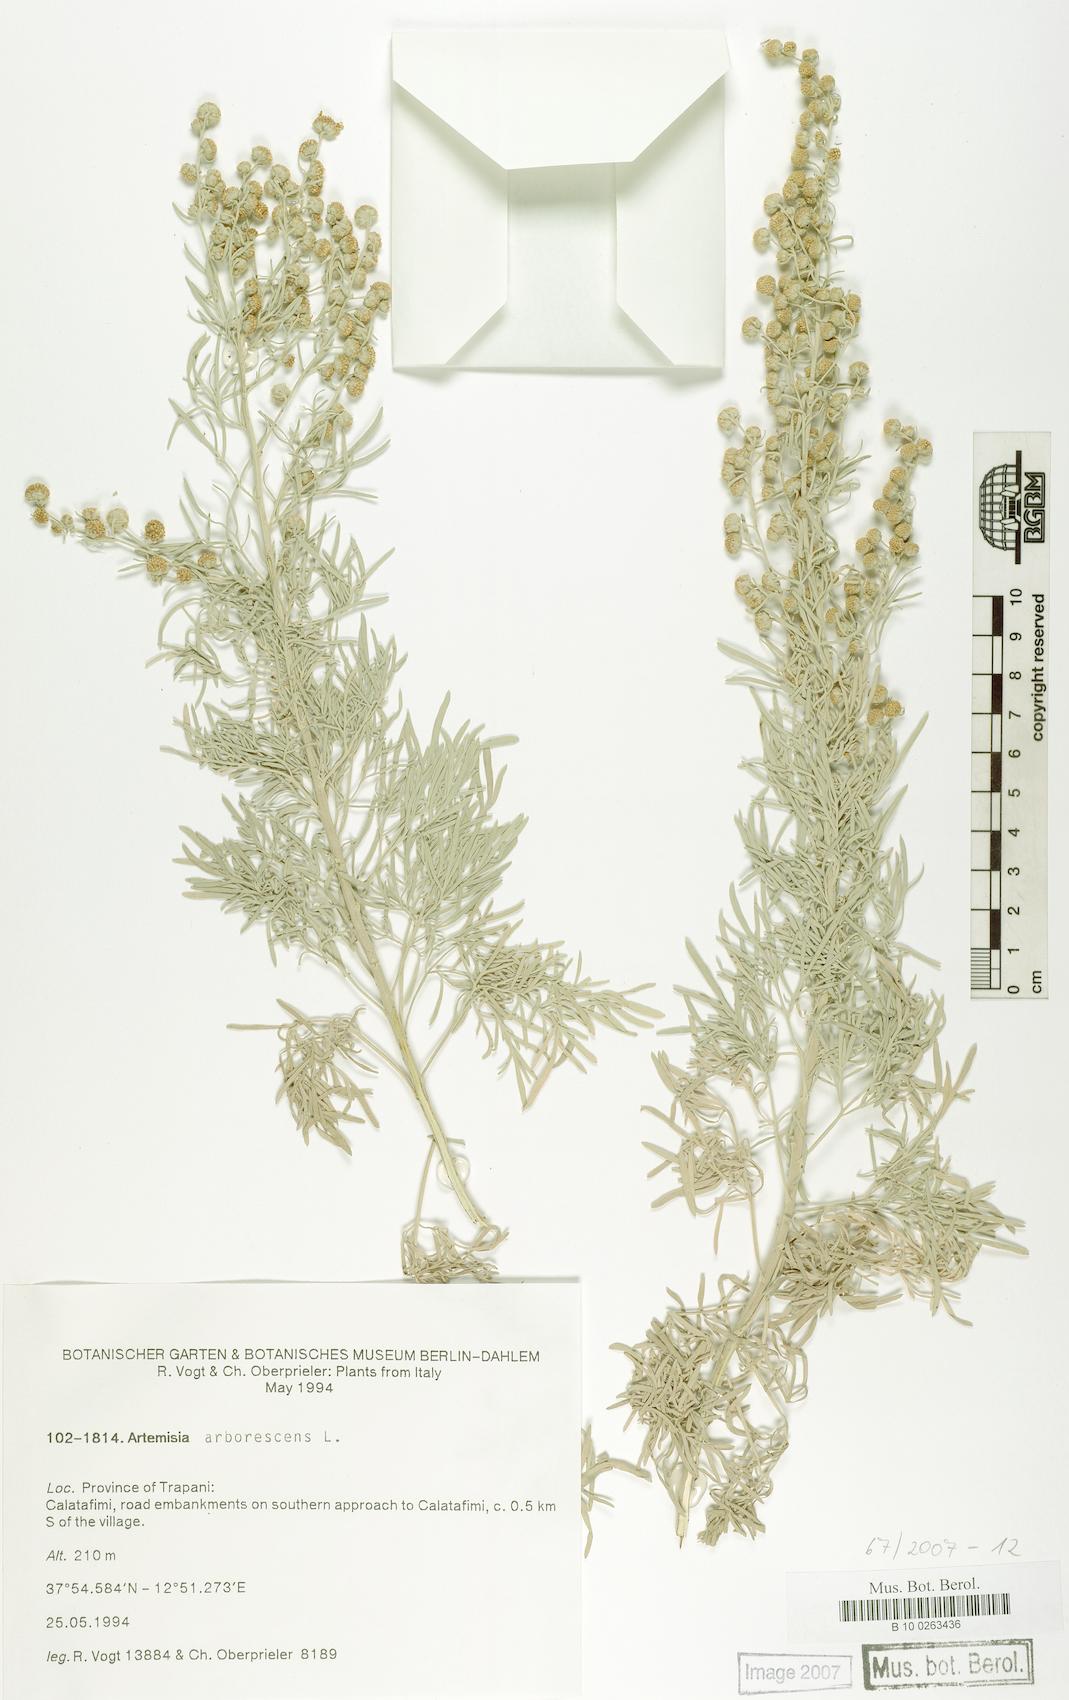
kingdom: Plantae
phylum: Tracheophyta
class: Magnoliopsida
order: Asterales
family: Asteraceae
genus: Artemisia
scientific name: Artemisia arborescens
